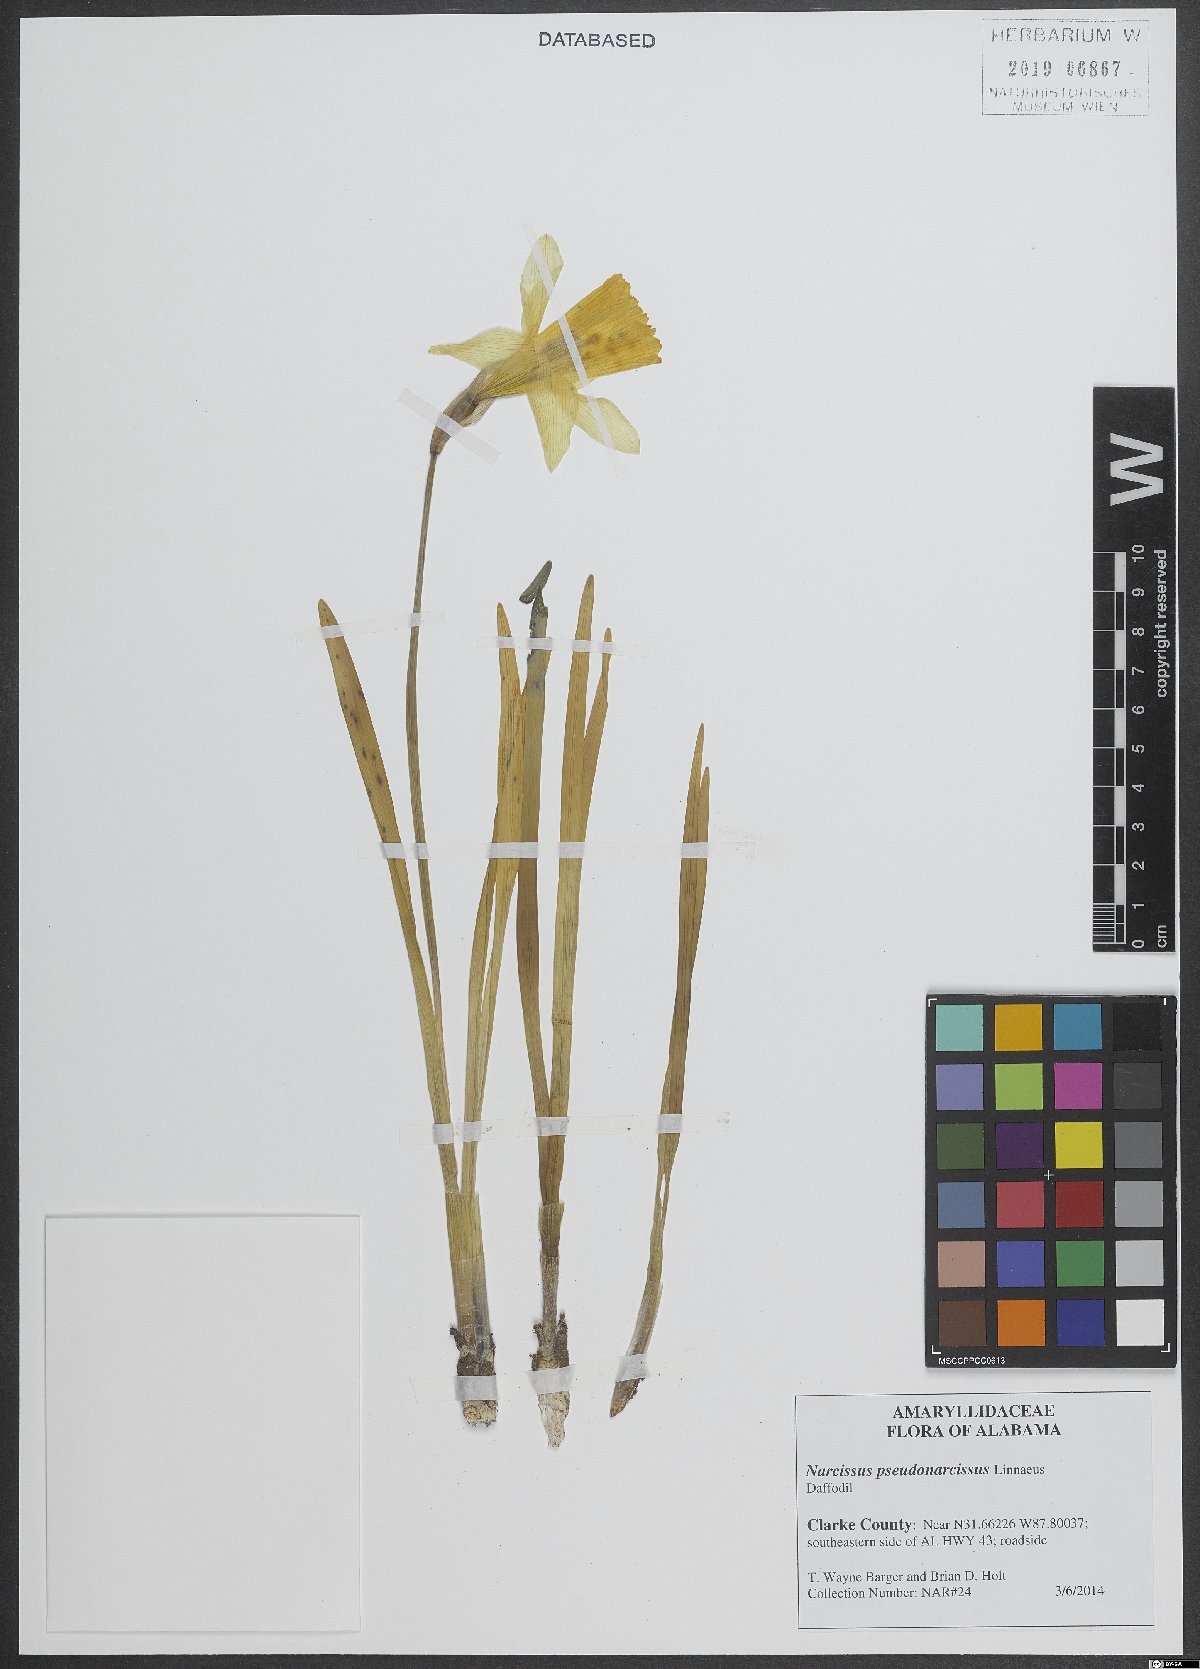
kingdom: Plantae
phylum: Tracheophyta
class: Liliopsida
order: Asparagales
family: Amaryllidaceae
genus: Narcissus
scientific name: Narcissus pseudonarcissus
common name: Daffodil
